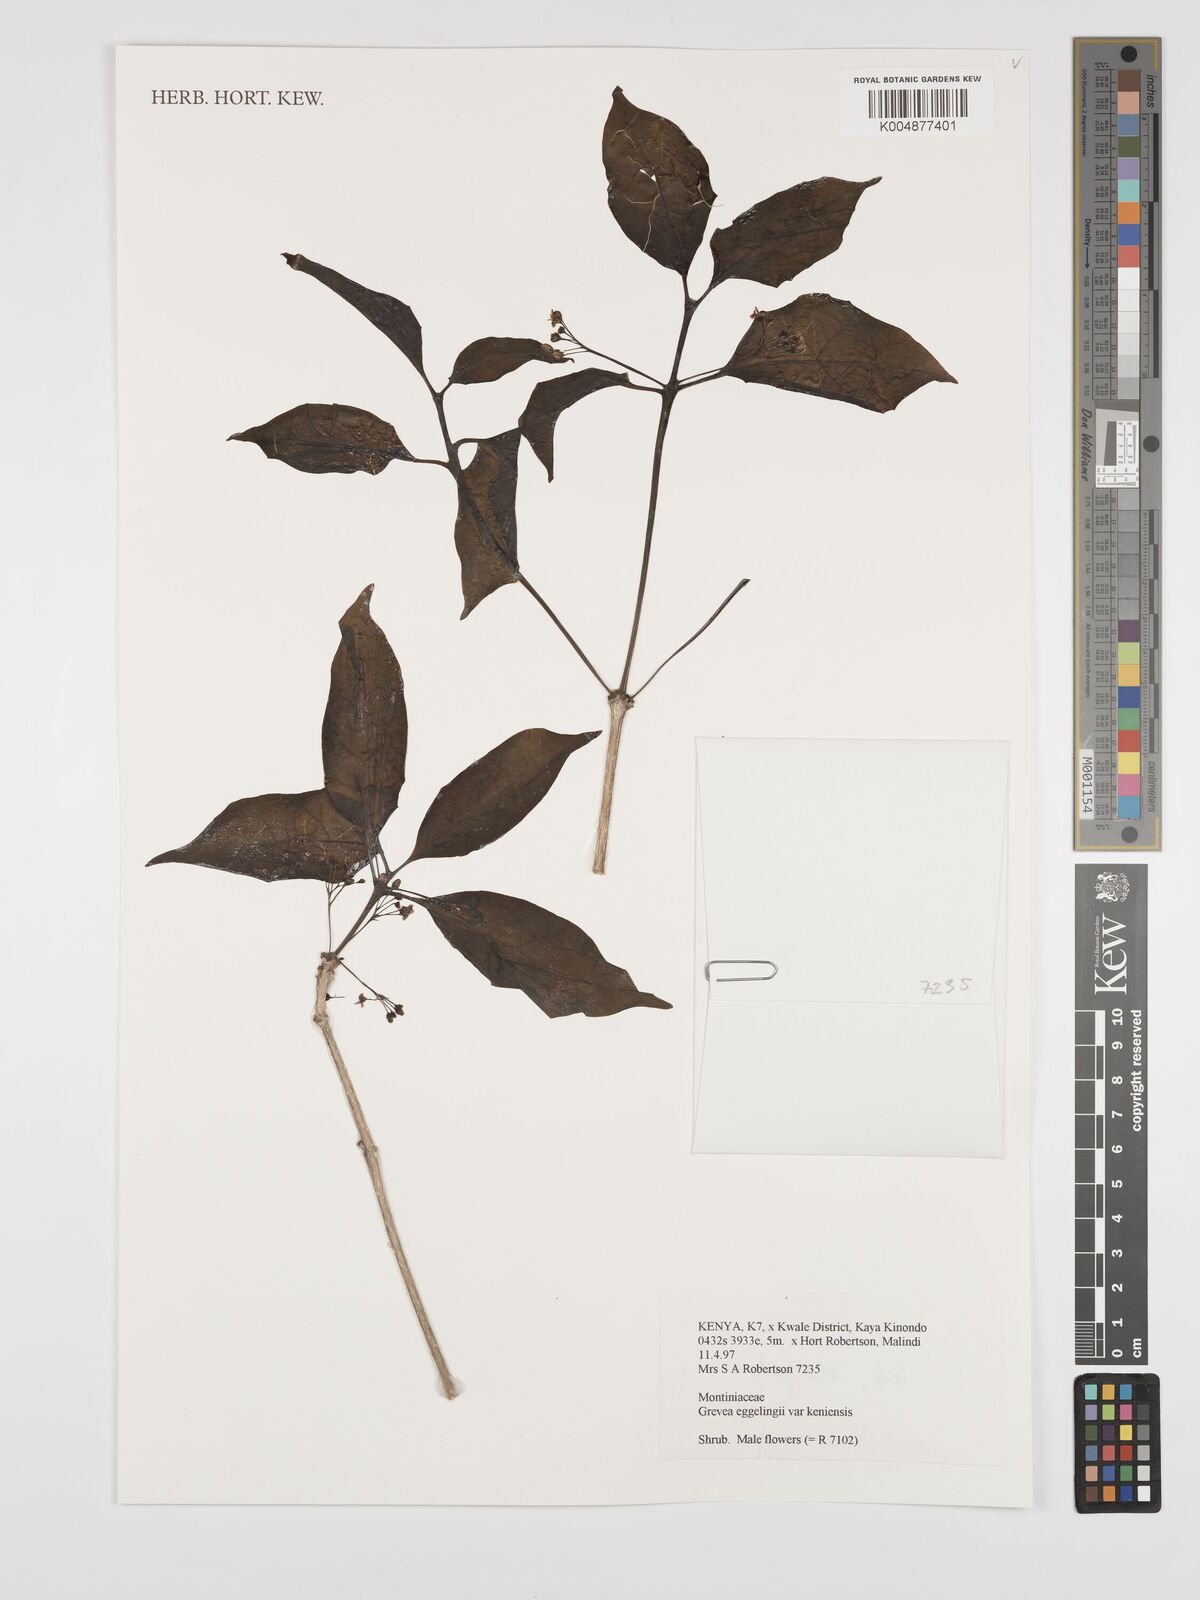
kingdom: Plantae
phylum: Tracheophyta
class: Magnoliopsida
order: Solanales
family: Montiniaceae
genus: Grevea
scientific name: Grevea eggelingii
